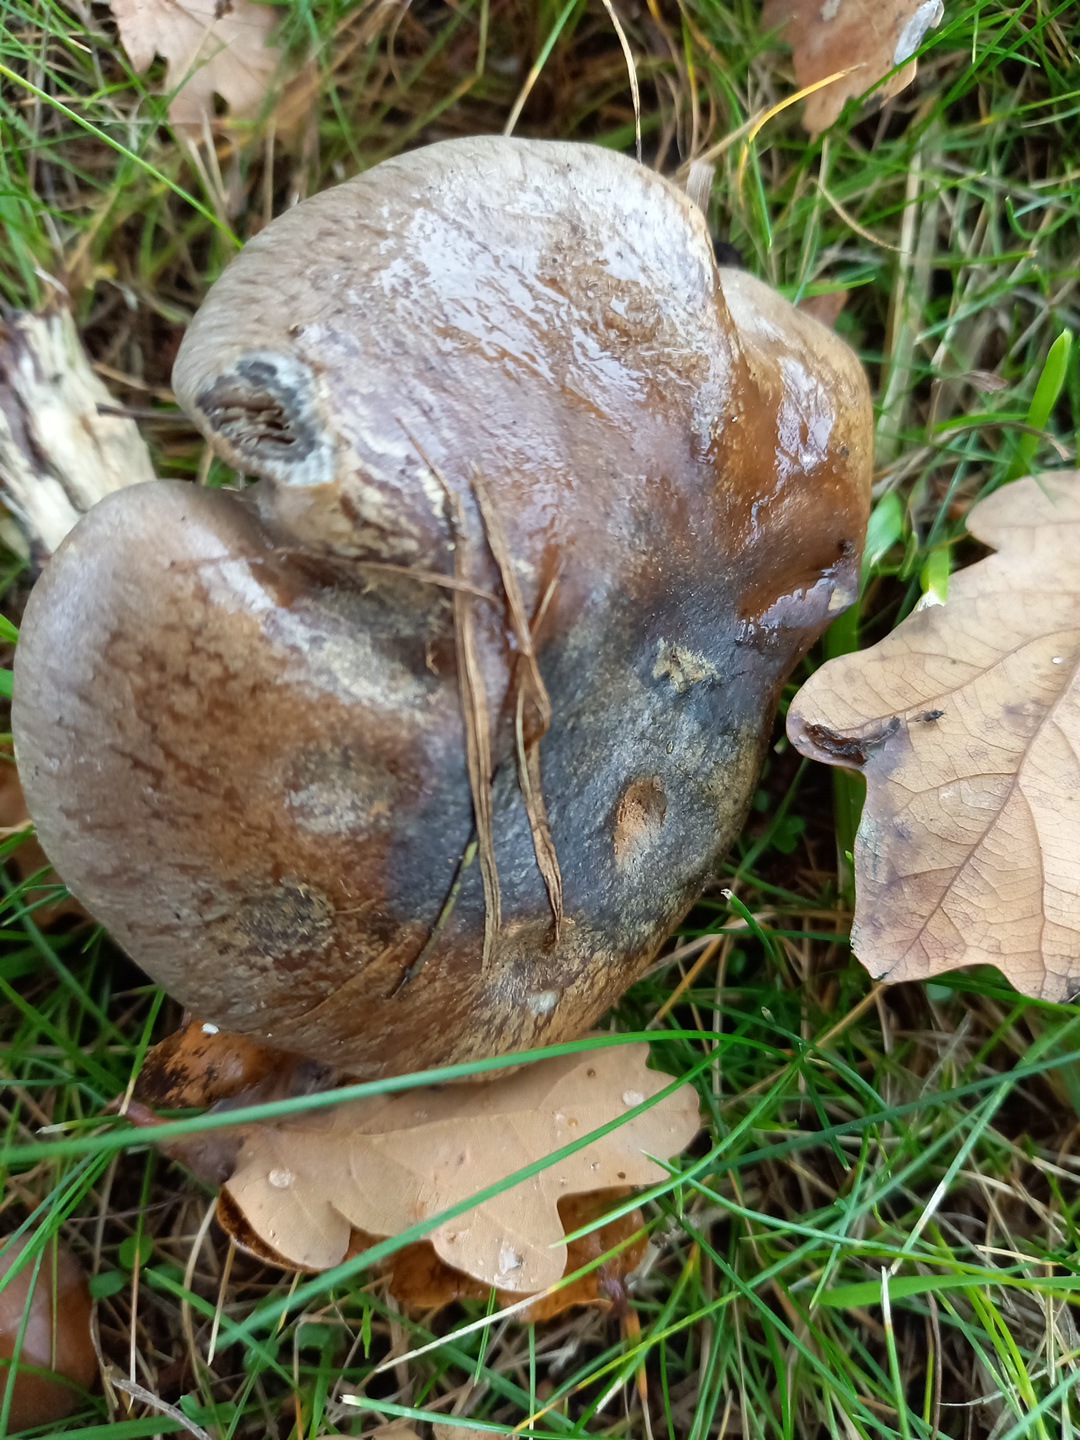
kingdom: Fungi
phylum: Basidiomycota
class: Agaricomycetes
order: Agaricales
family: Cortinariaceae
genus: Cortinarius
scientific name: Cortinarius
